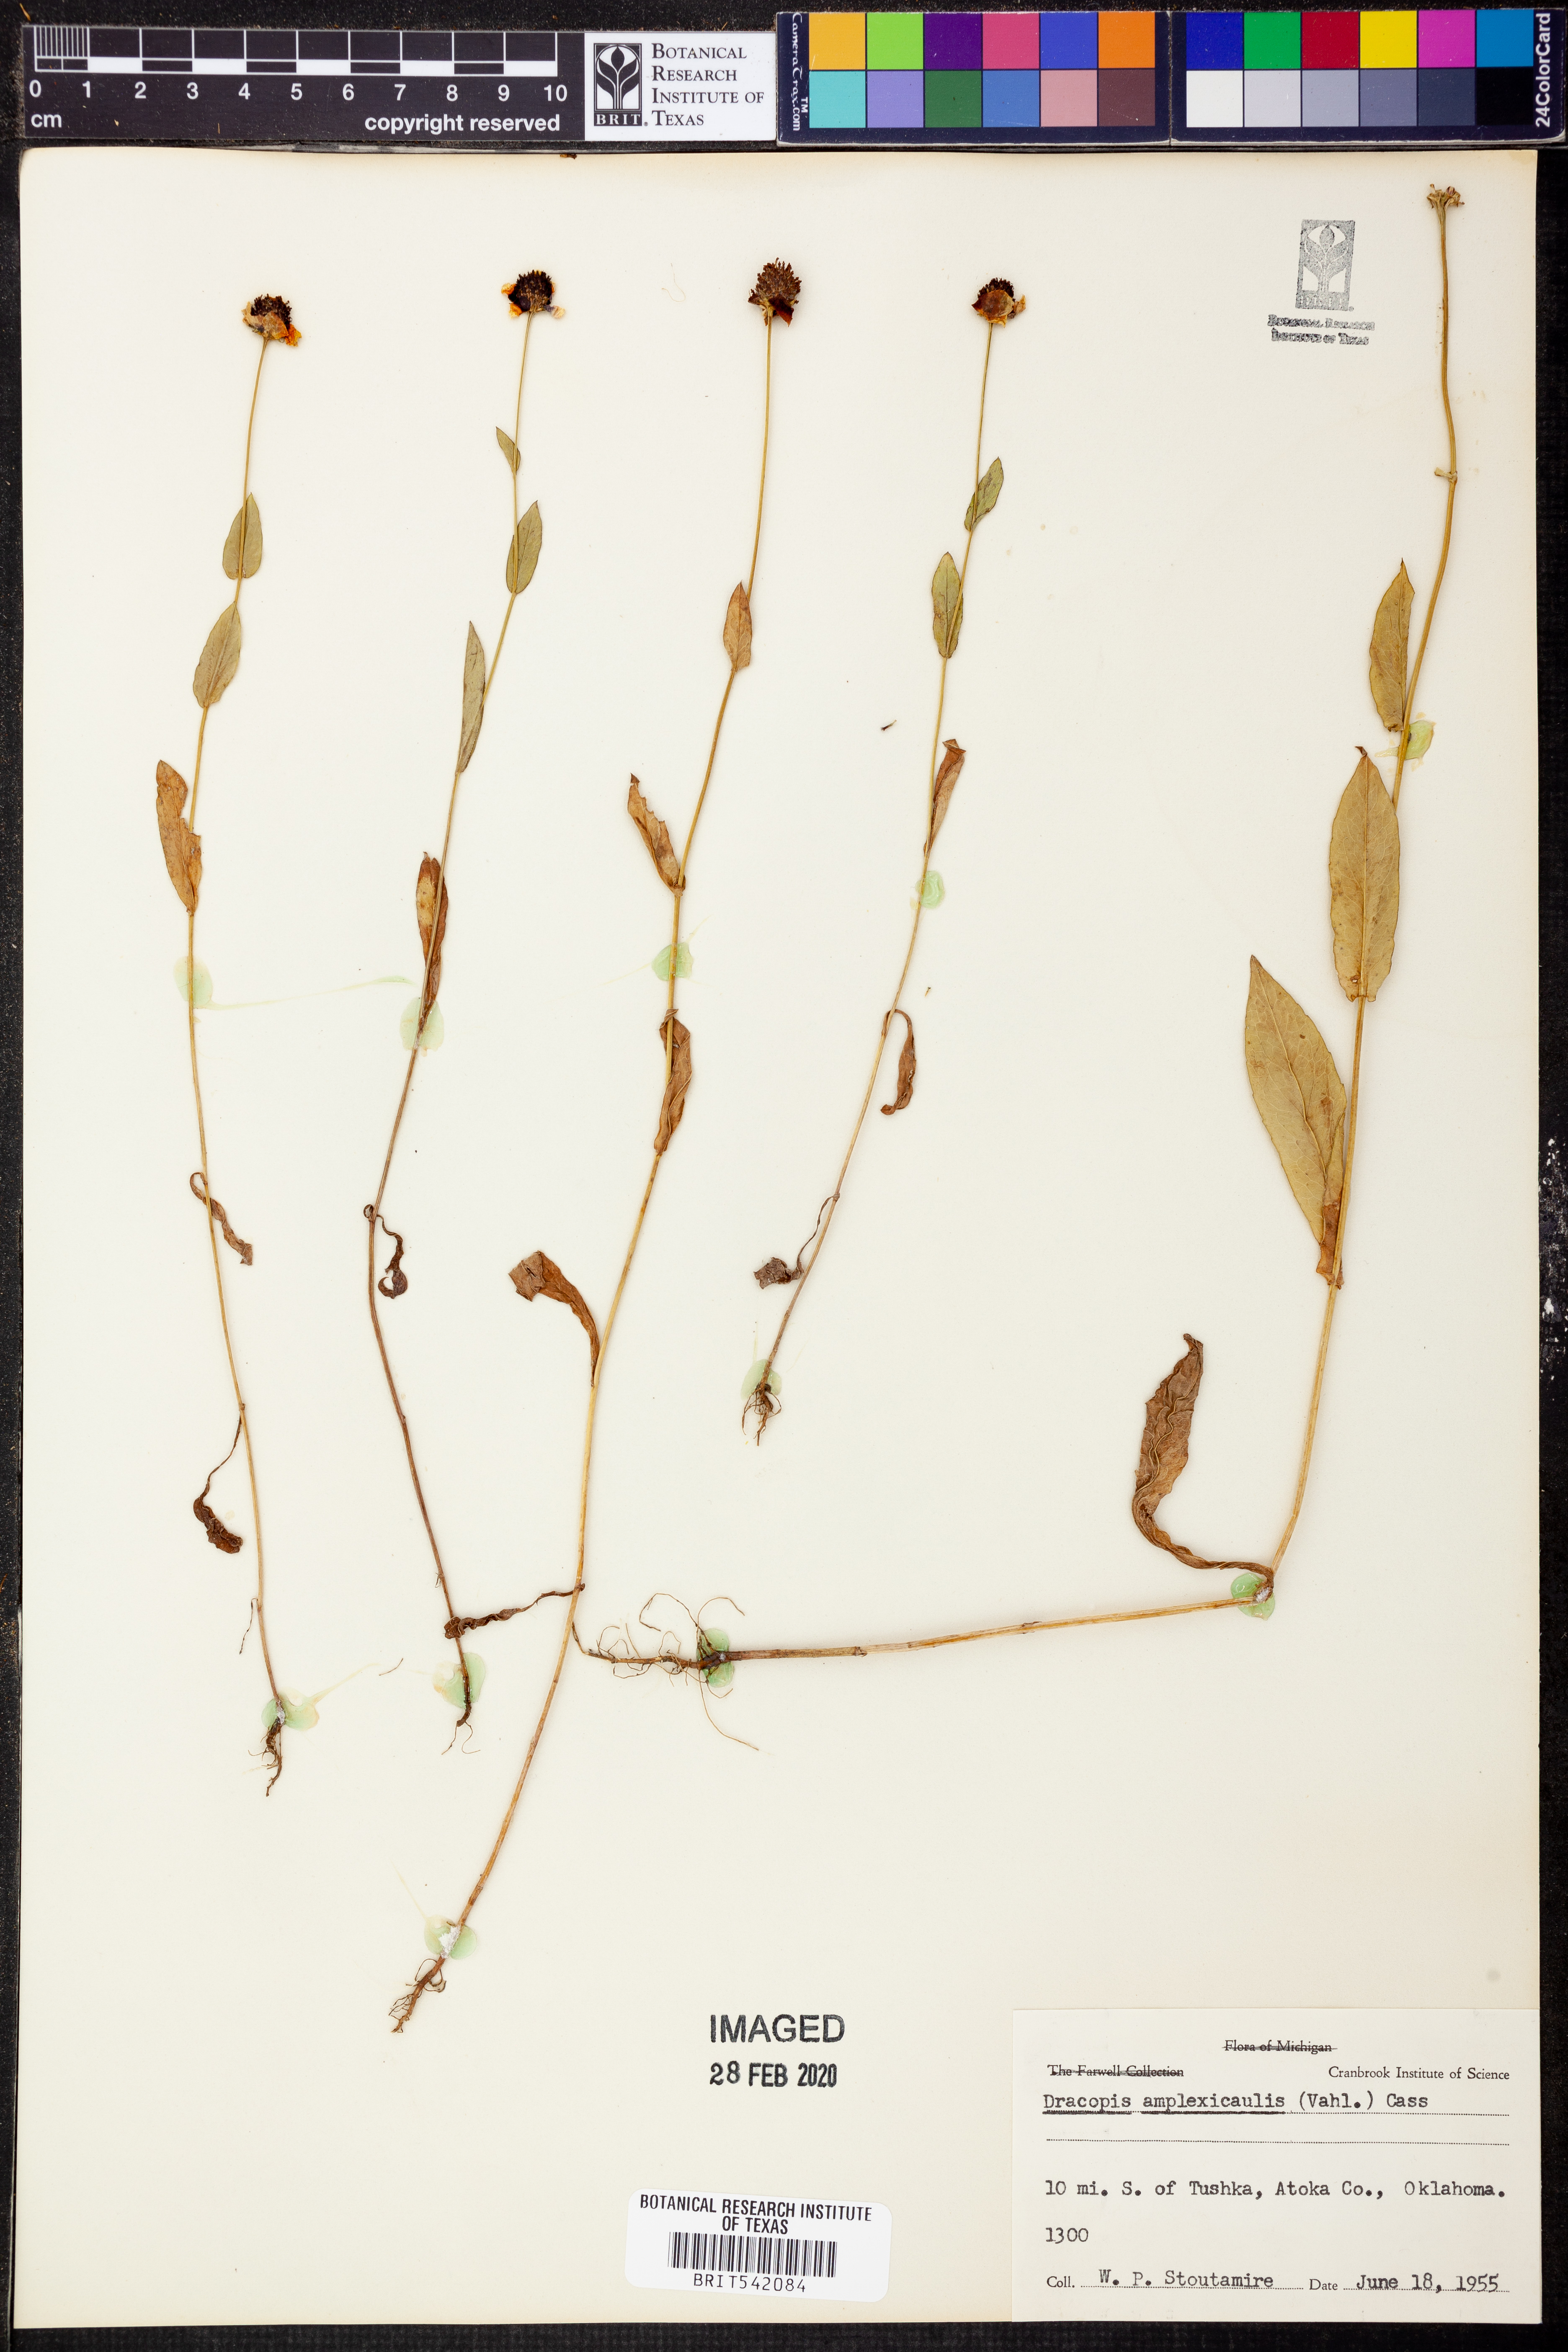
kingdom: Plantae
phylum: Tracheophyta
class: Magnoliopsida
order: Asterales
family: Asteraceae
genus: Rudbeckia
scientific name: Rudbeckia amplexicaulis
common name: Clasping-leaf coneflower
